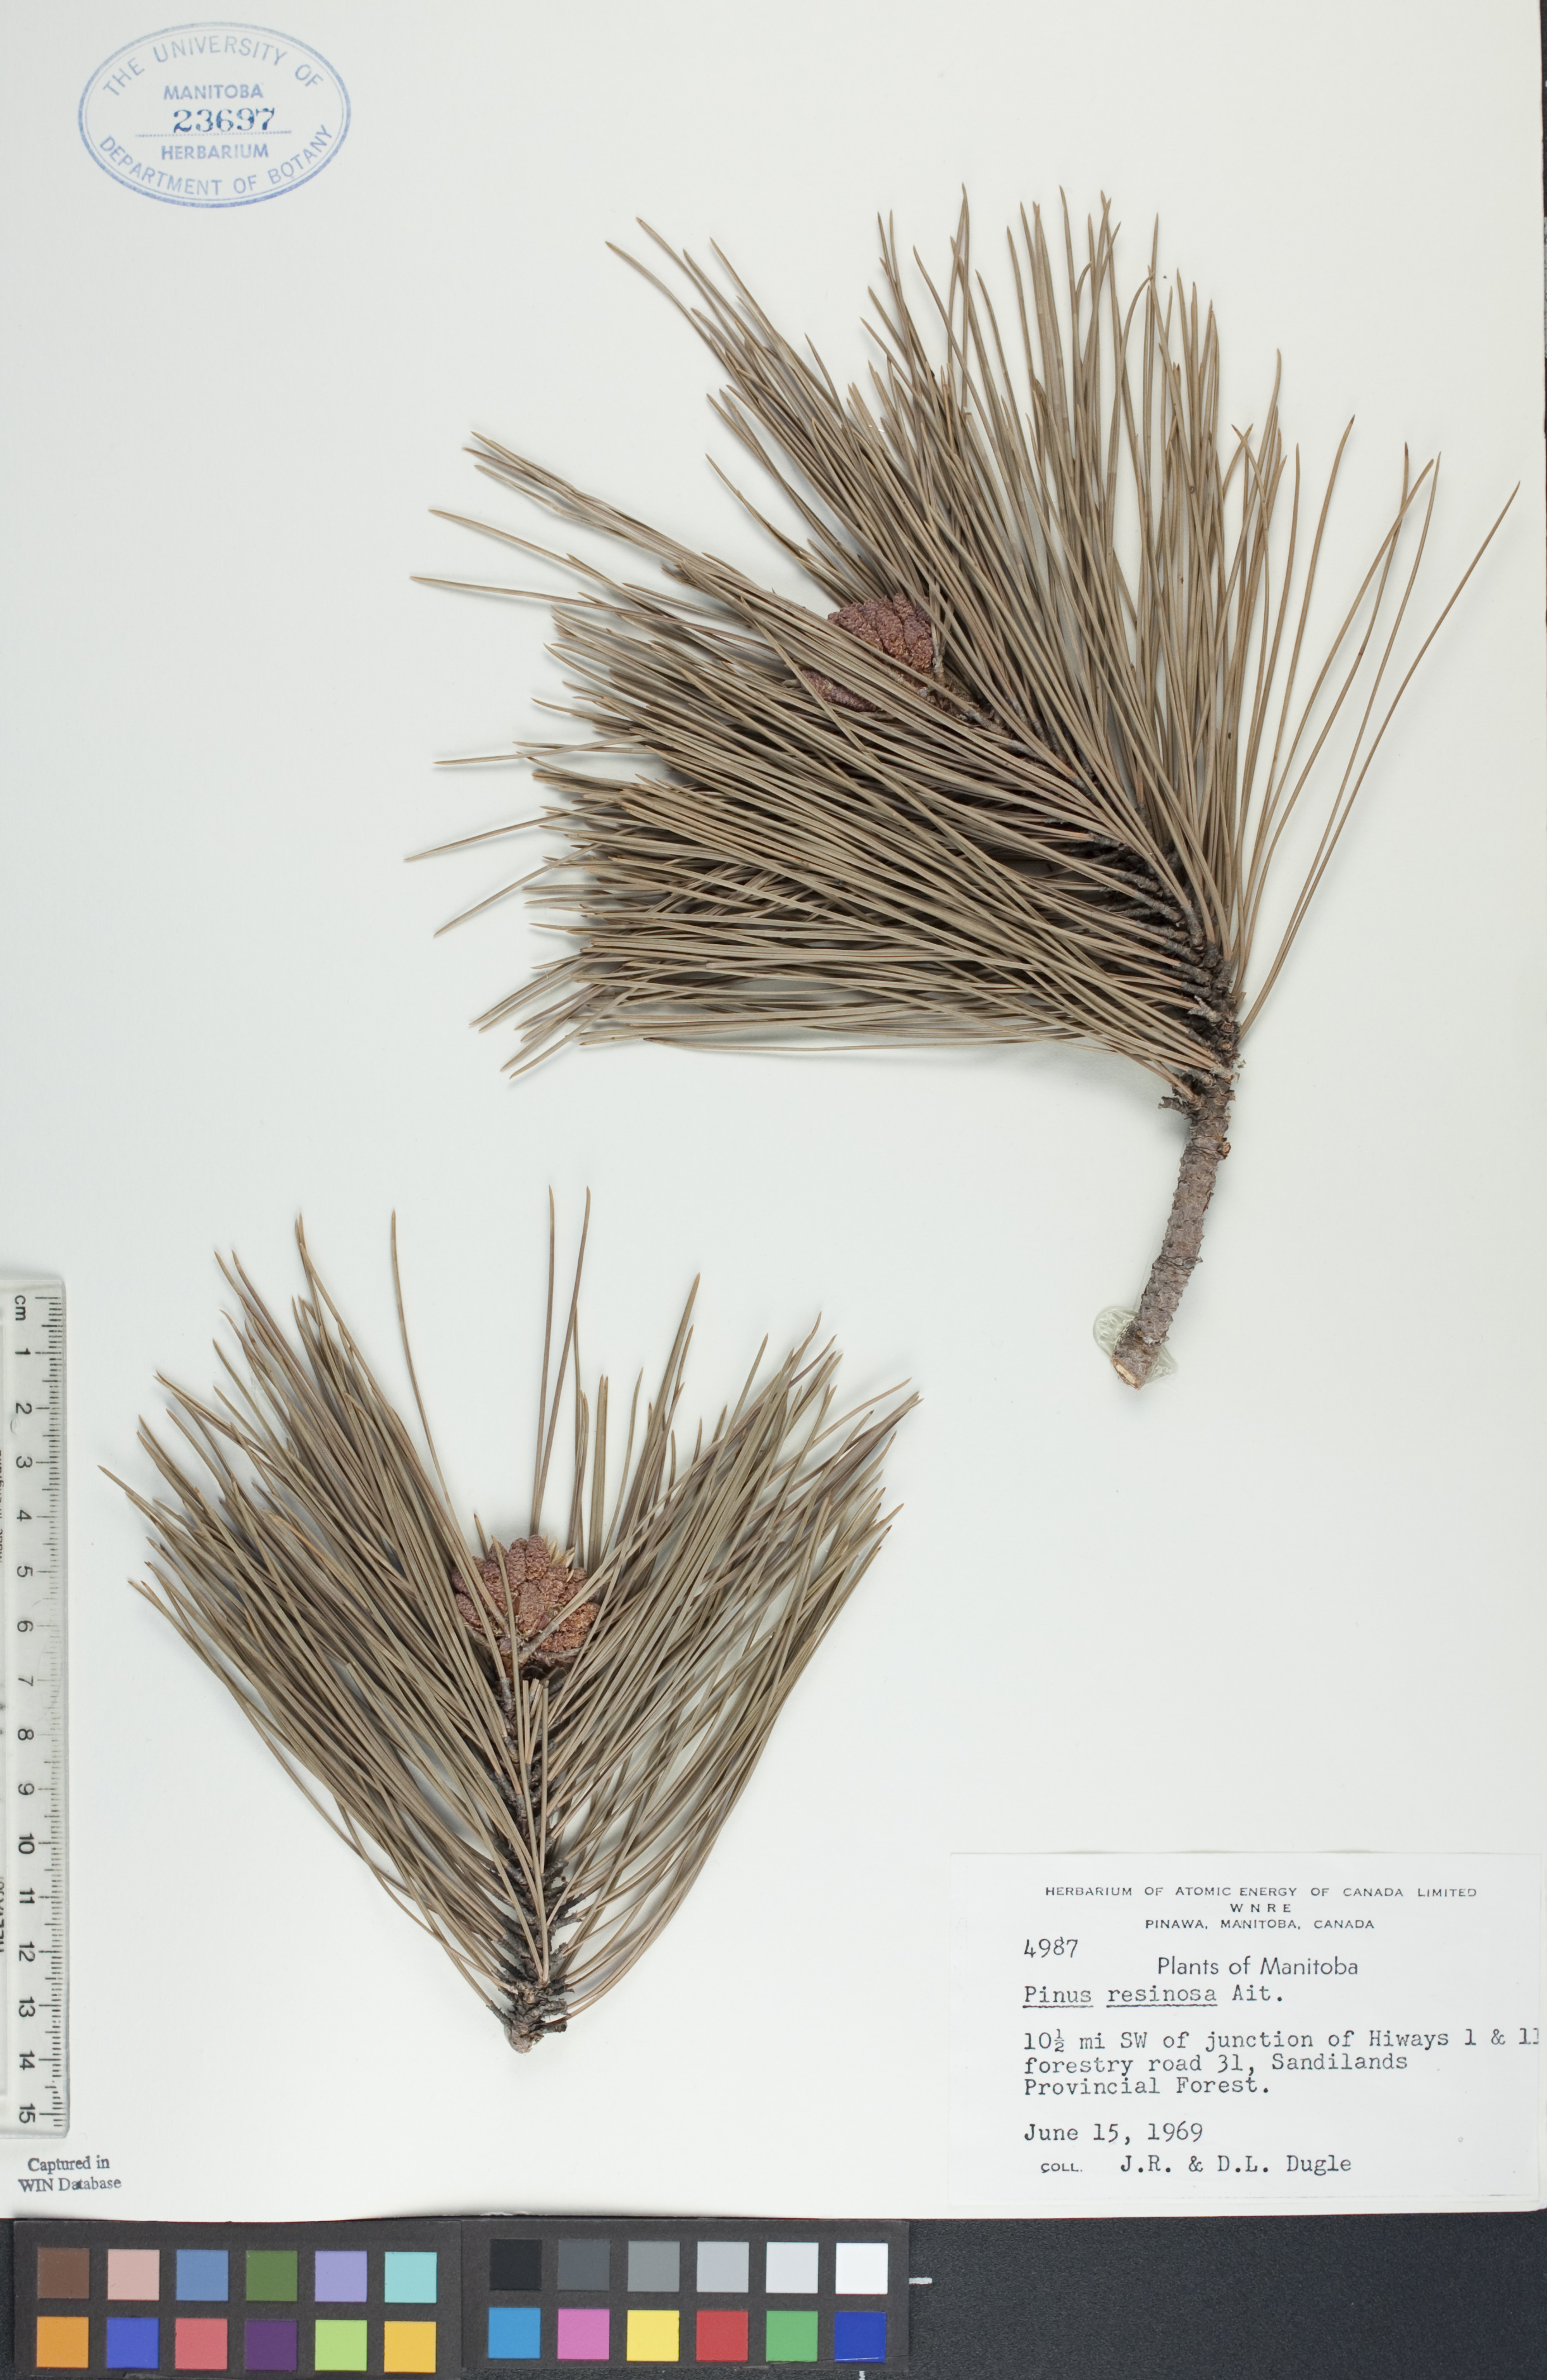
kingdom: Plantae
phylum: Tracheophyta
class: Pinopsida
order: Pinales
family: Pinaceae
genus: Pinus
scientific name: Pinus resinosa
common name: Norway pine
